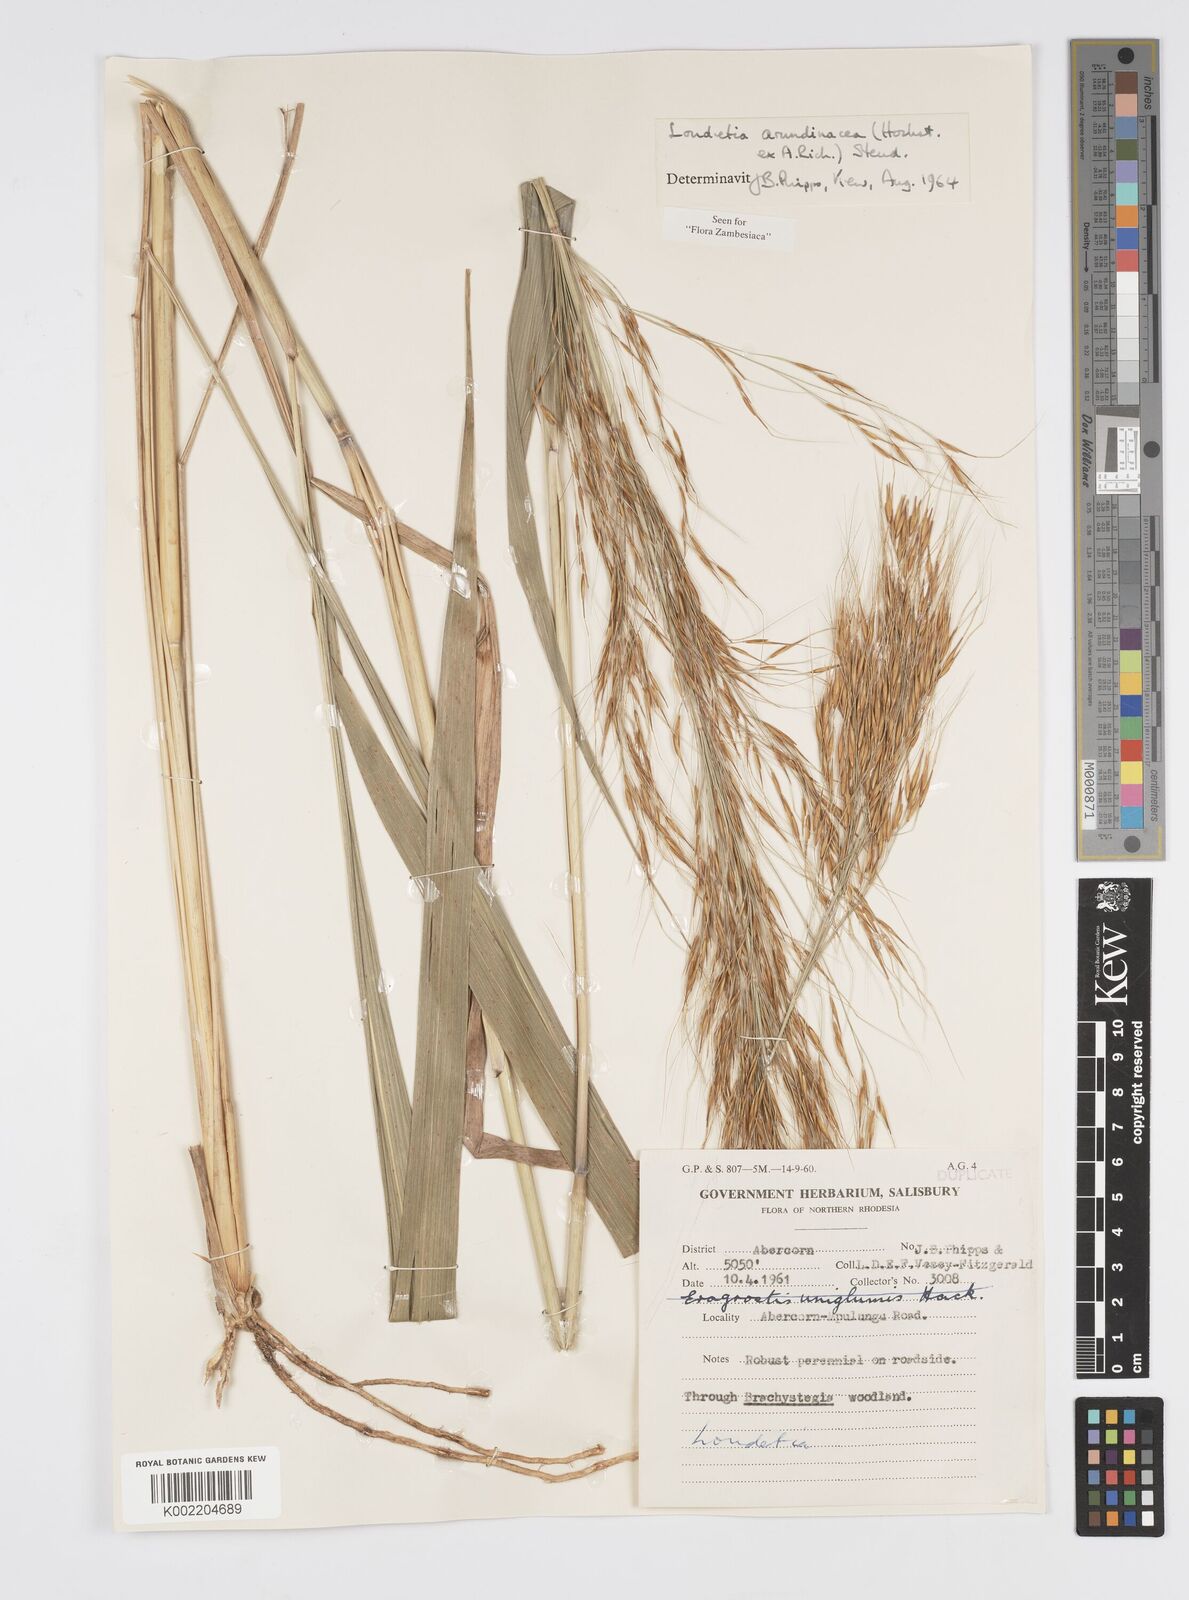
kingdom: Plantae
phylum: Tracheophyta
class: Liliopsida
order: Poales
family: Poaceae
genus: Loudetia
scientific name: Loudetia arundinacea
